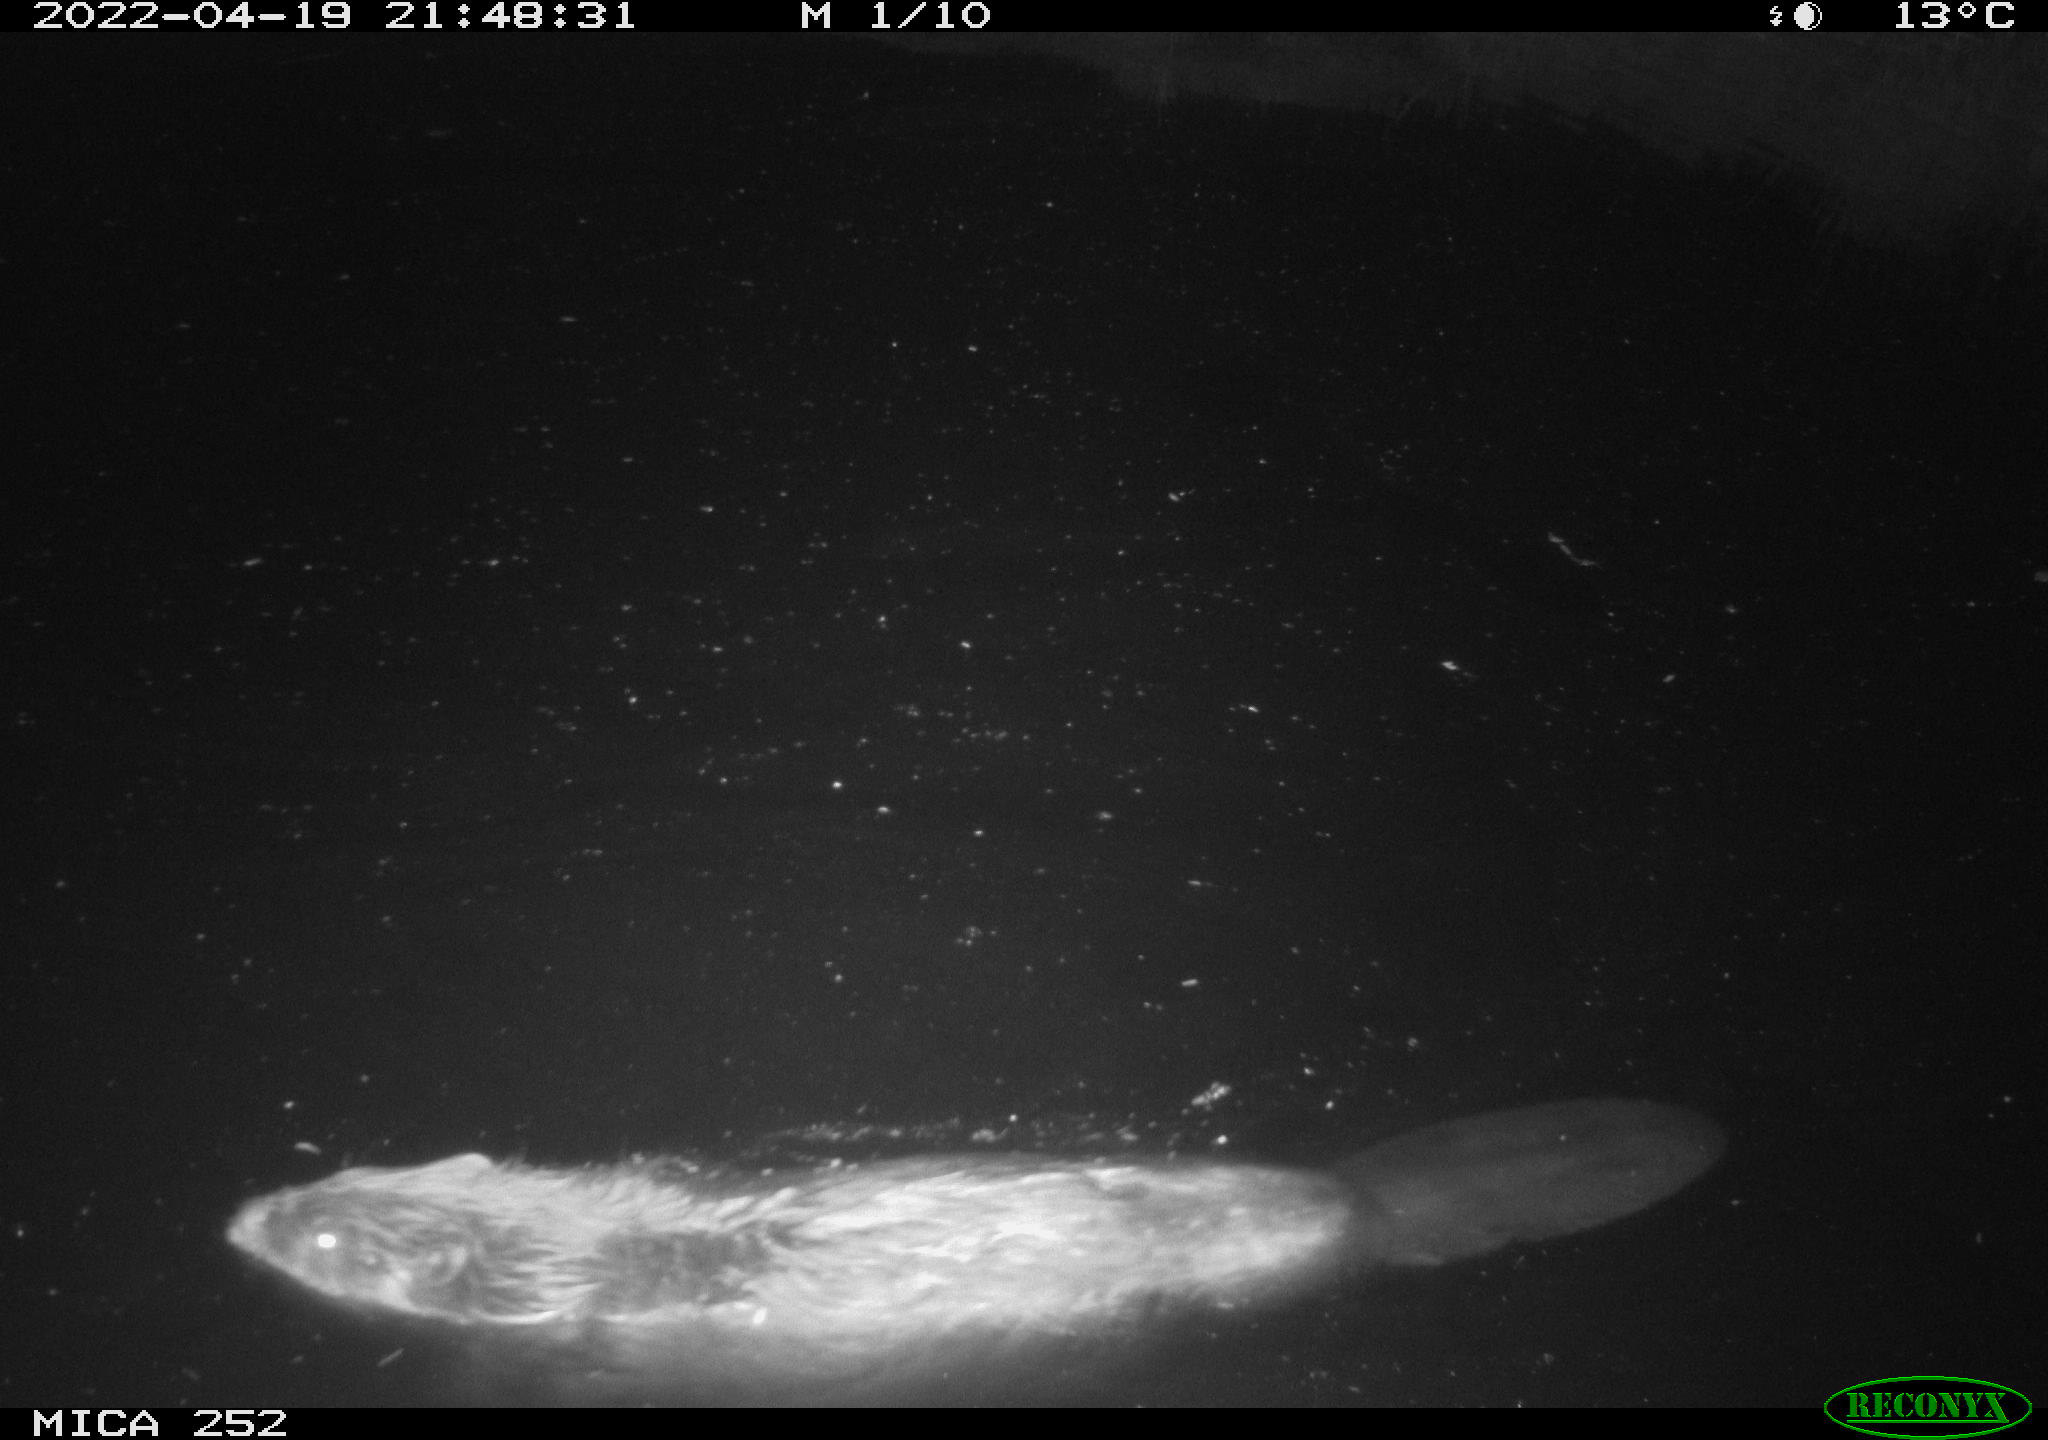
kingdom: Animalia
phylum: Chordata
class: Mammalia
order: Rodentia
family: Castoridae
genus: Castor
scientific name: Castor fiber
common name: Eurasian beaver
